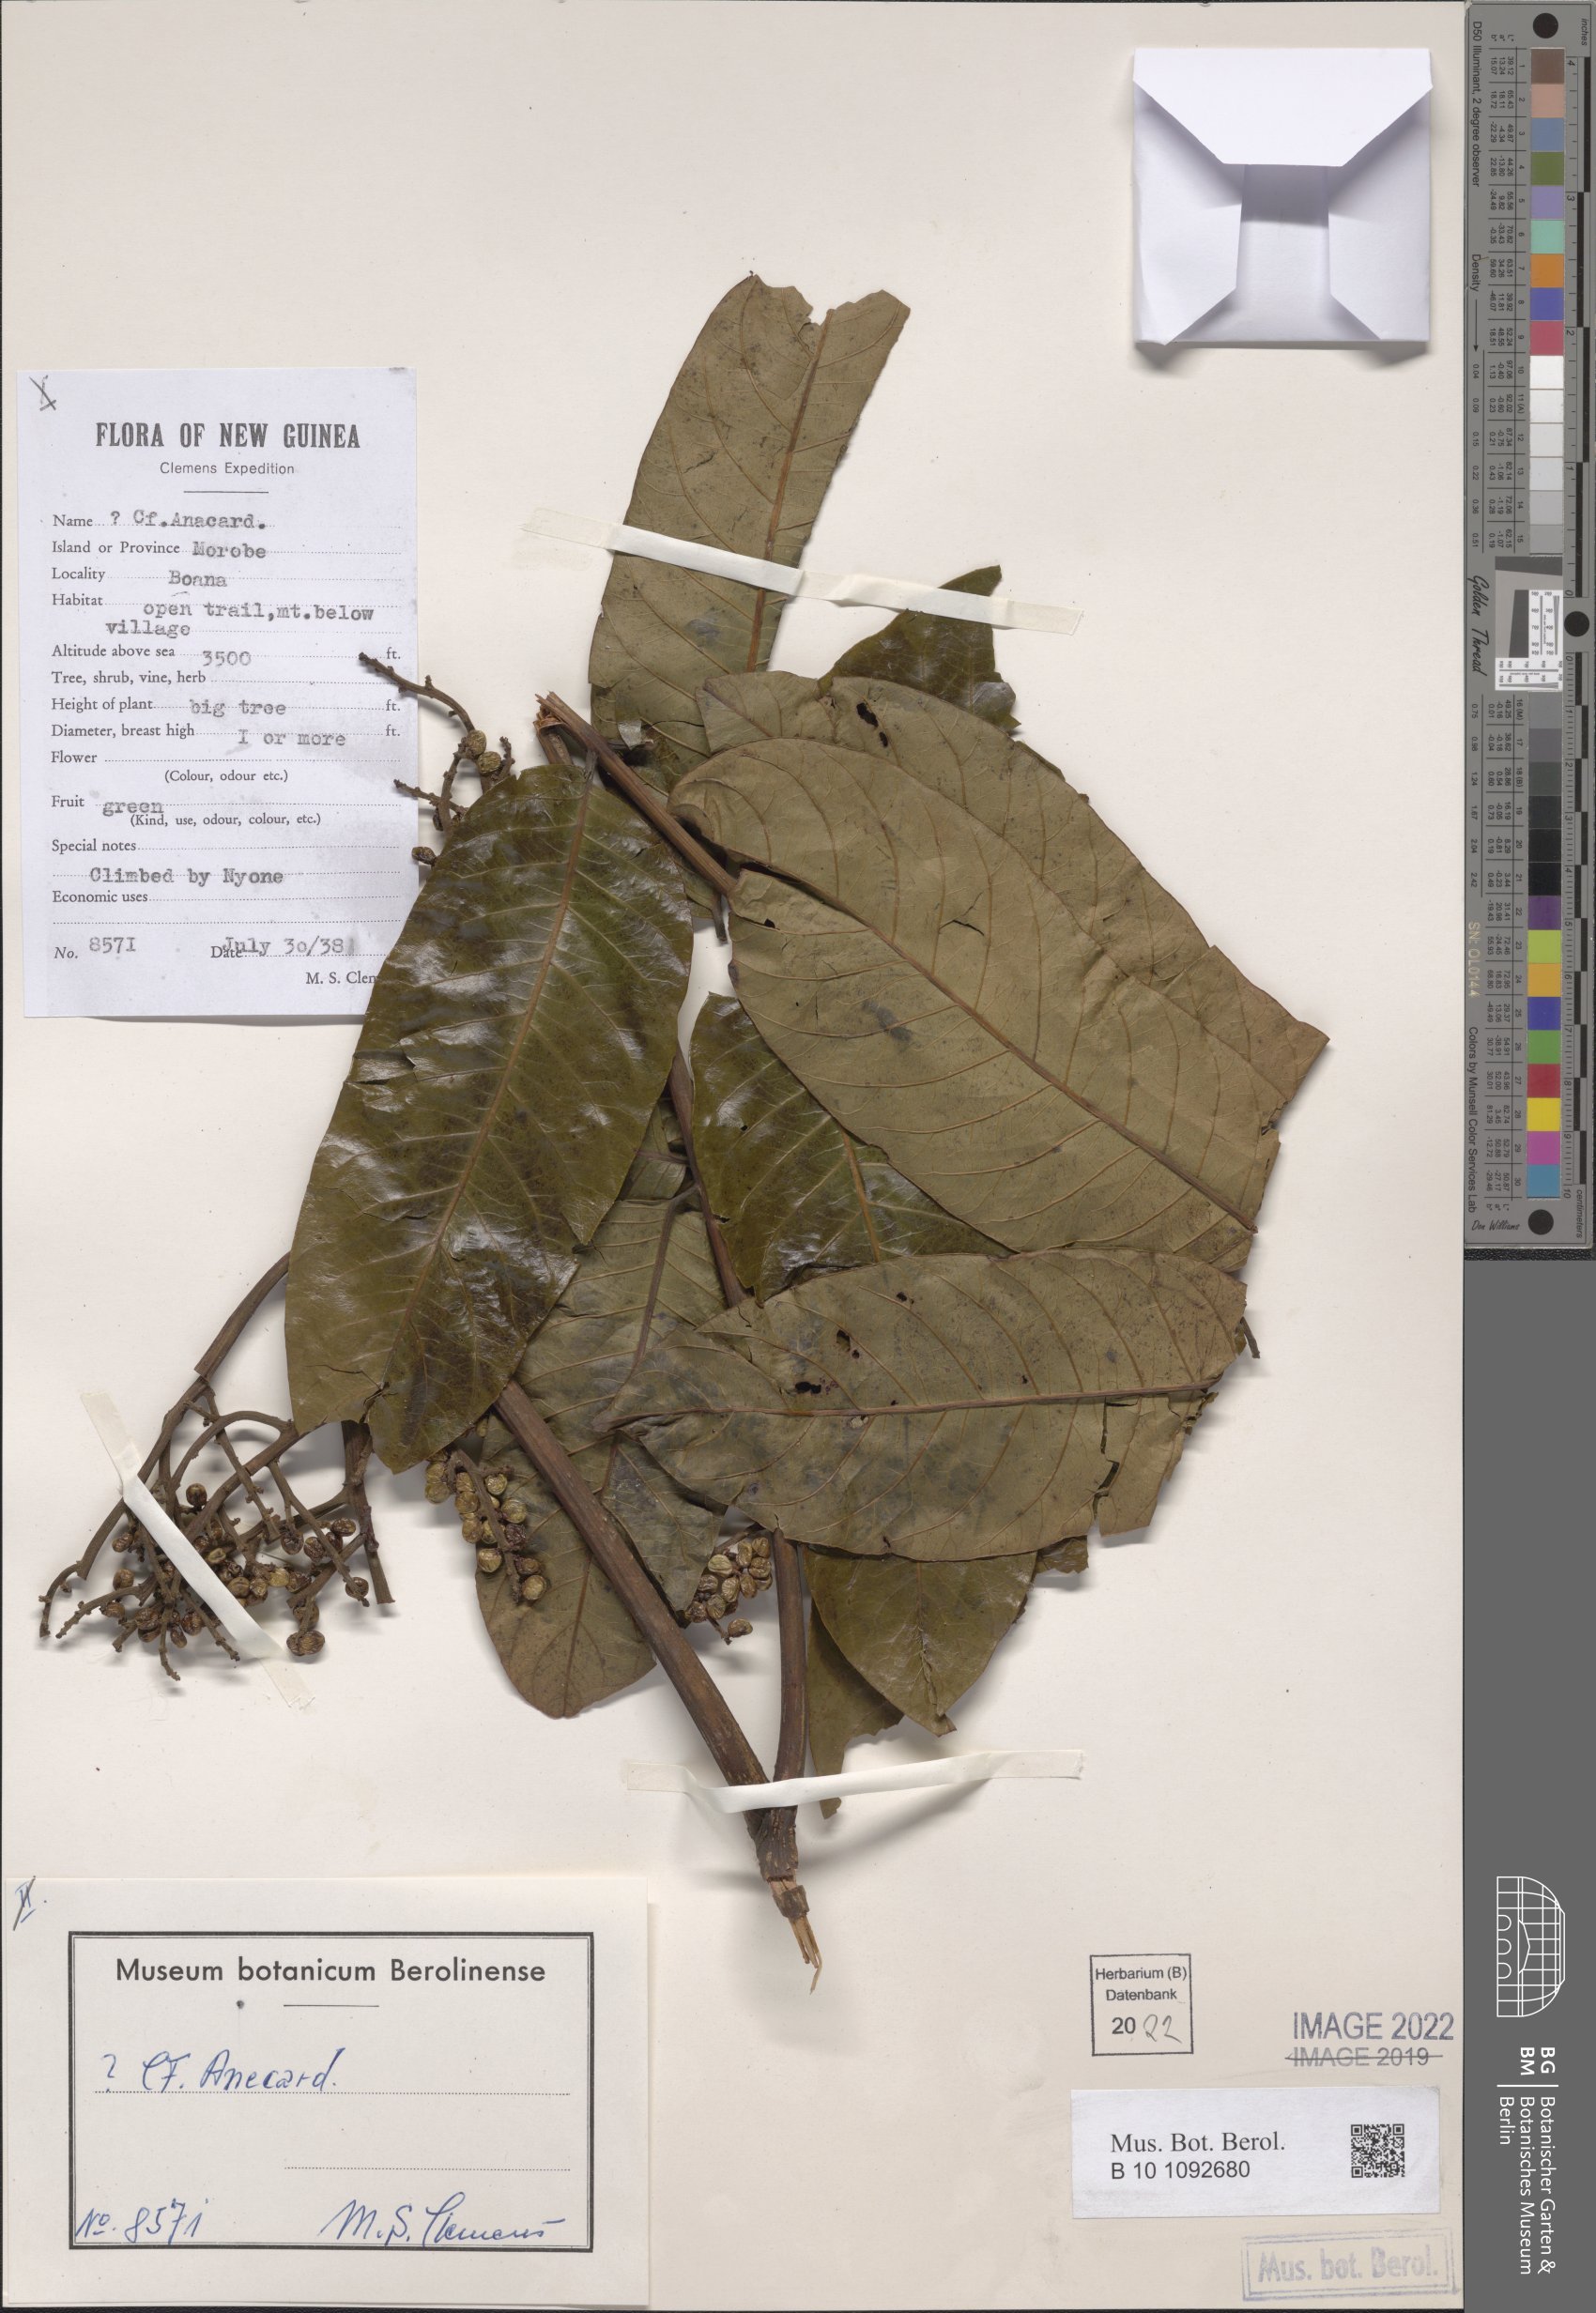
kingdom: Plantae
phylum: Tracheophyta
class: Magnoliopsida
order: Sapindales
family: Anacardiaceae
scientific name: Anacardiaceae
